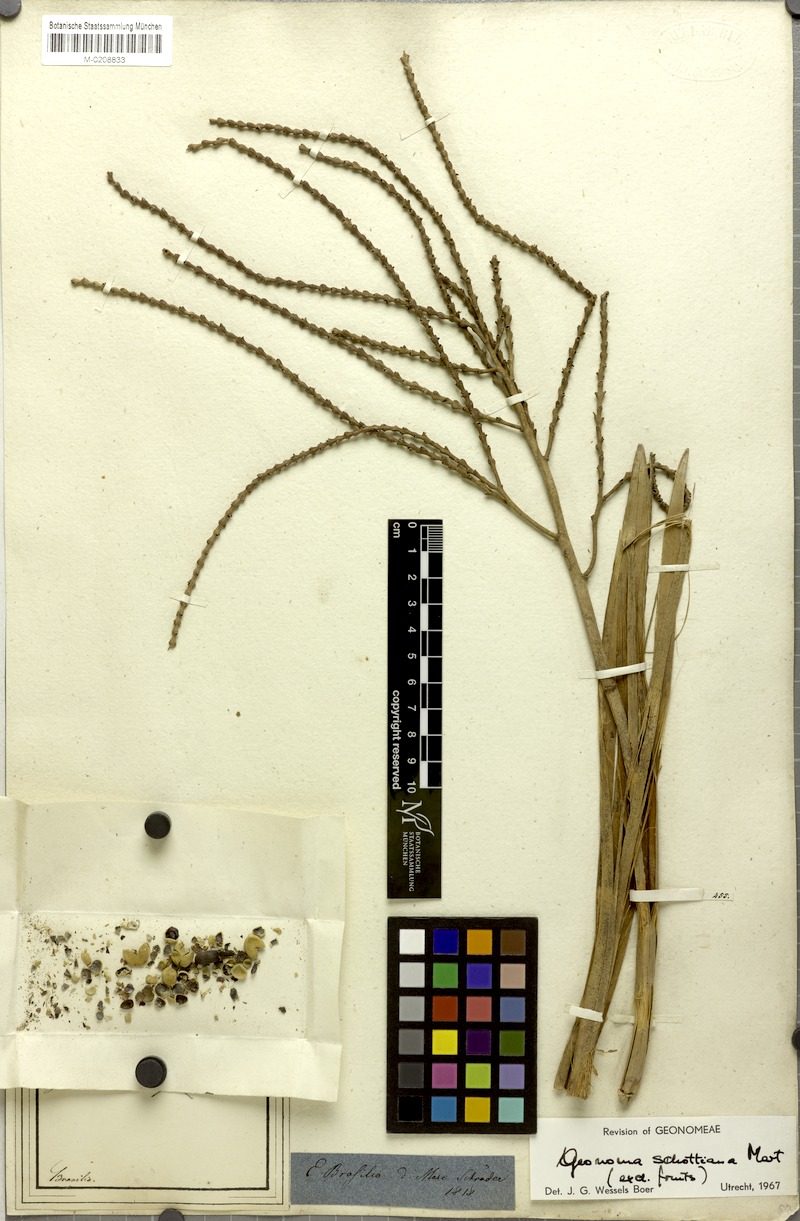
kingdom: Plantae
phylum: Tracheophyta
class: Liliopsida
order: Arecales
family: Arecaceae
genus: Geonoma
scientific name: Geonoma schottiana
